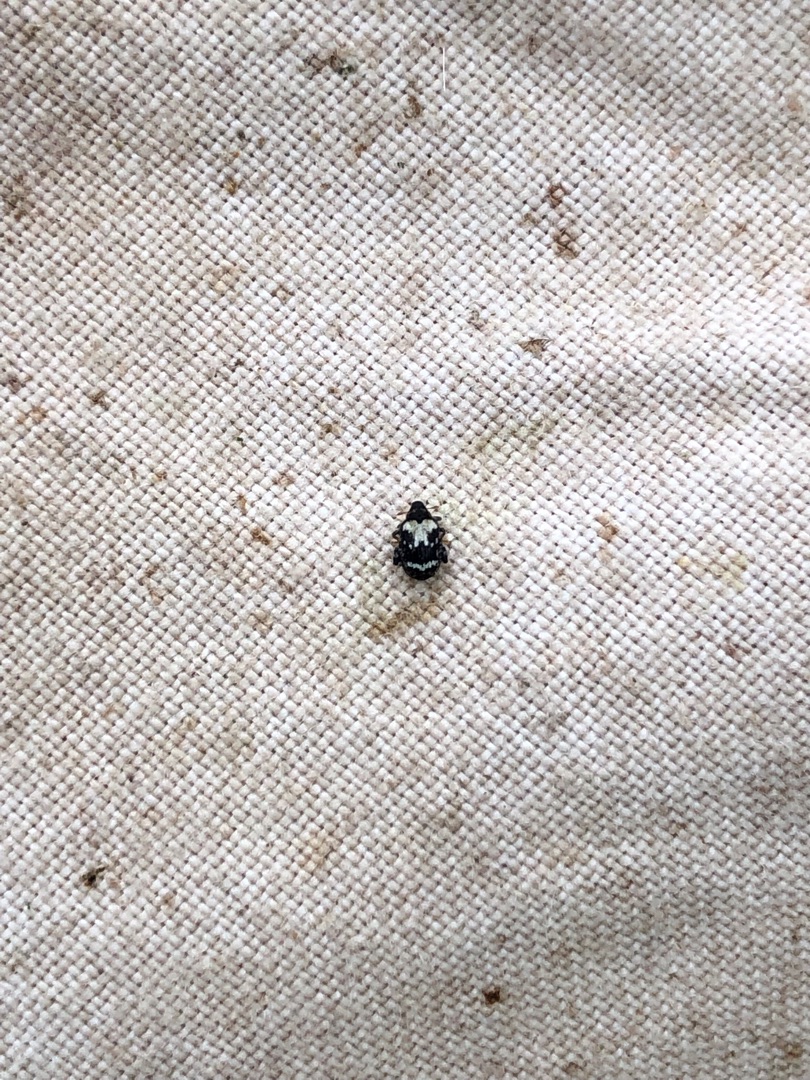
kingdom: Animalia
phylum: Arthropoda
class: Insecta
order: Coleoptera
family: Curculionidae
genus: Orchestes
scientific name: Orchestes hortorum
